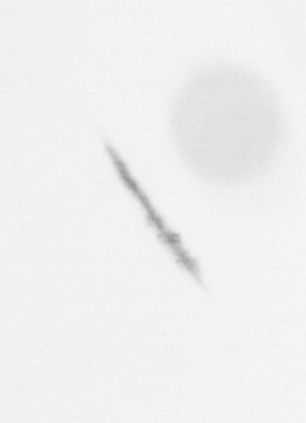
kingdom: Chromista
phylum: Ochrophyta
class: Bacillariophyceae
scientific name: Bacillariophyceae
